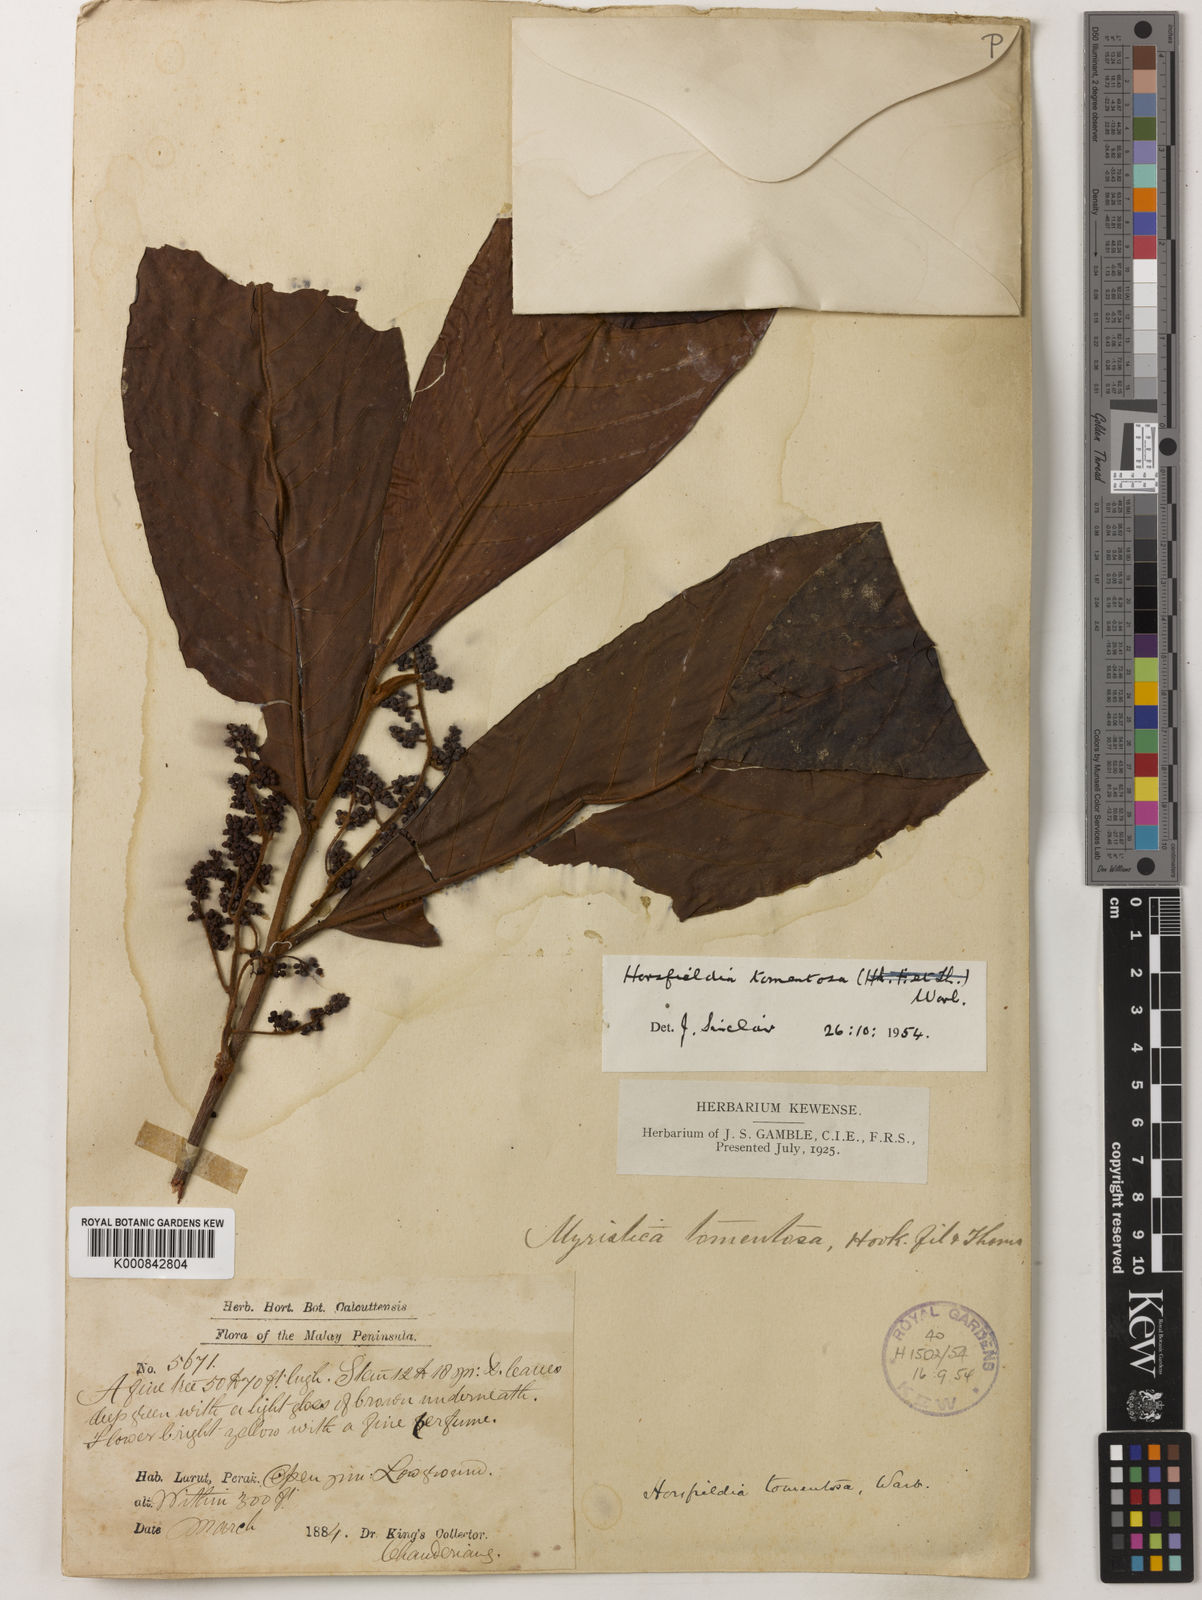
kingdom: Plantae
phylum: Tracheophyta
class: Magnoliopsida
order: Magnoliales
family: Myristicaceae
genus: Horsfieldia
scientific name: Horsfieldia tomentosa
